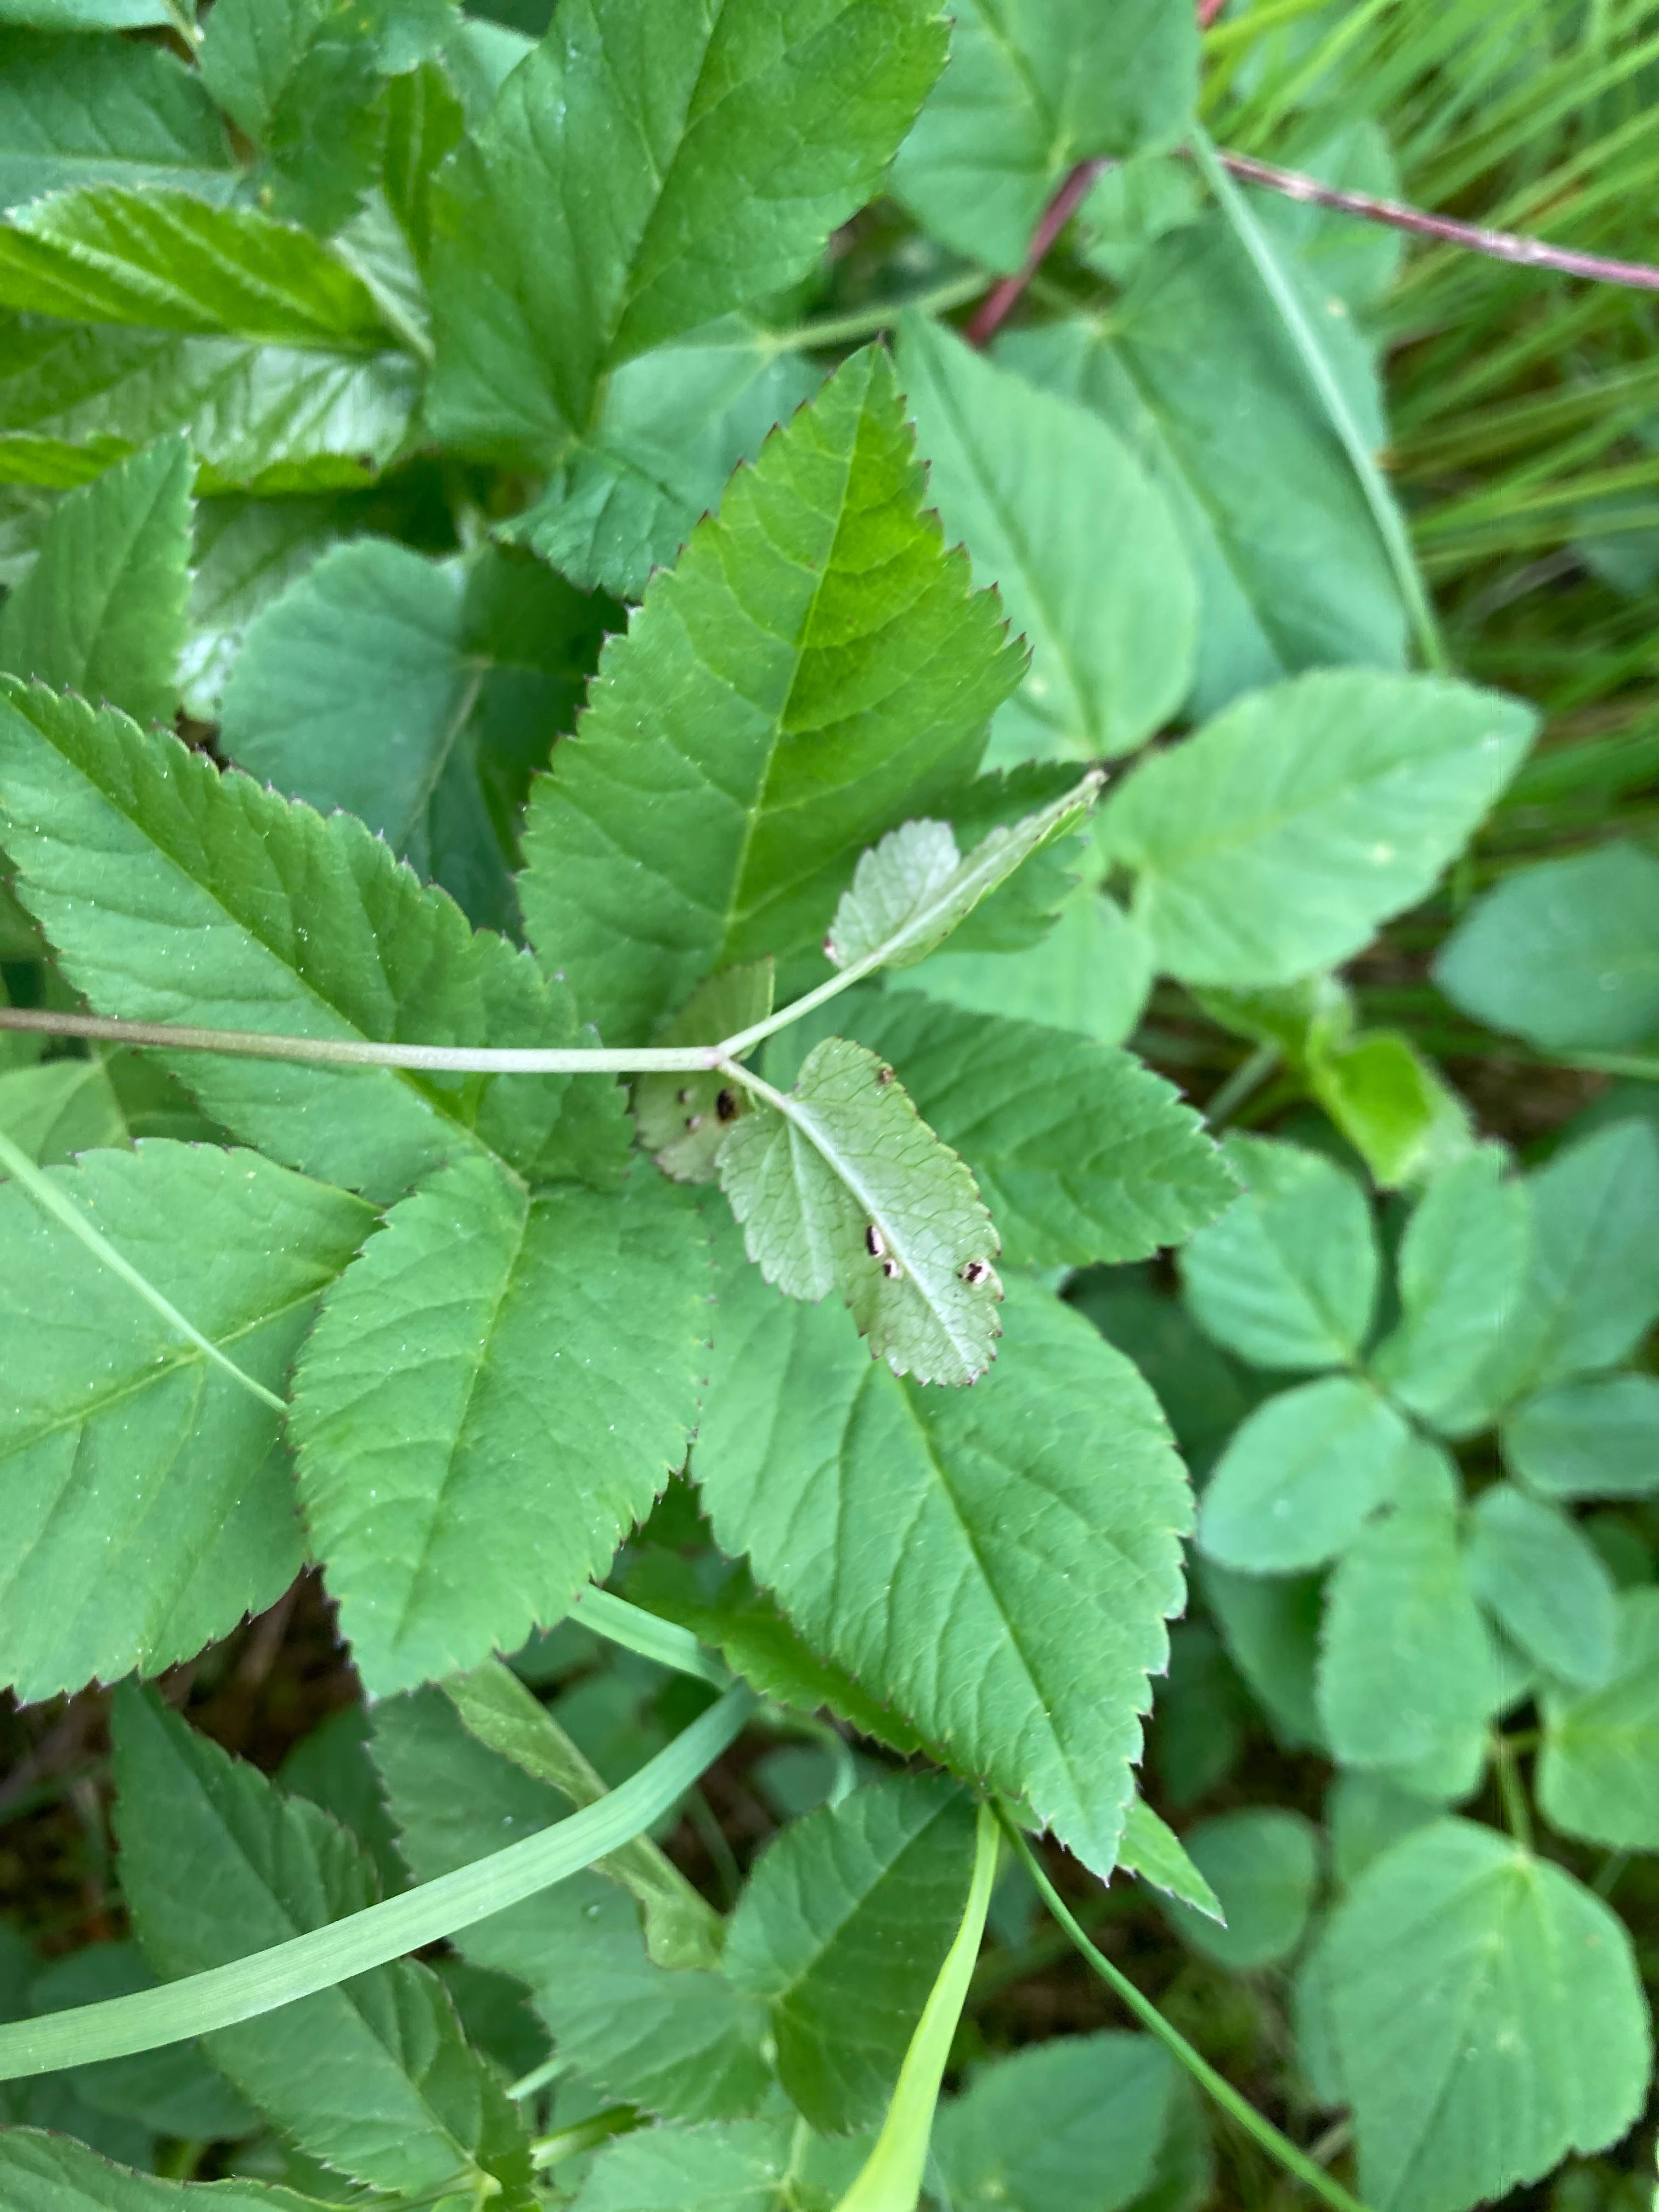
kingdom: Fungi
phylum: Basidiomycota
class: Pucciniomycetes
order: Pucciniales
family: Pucciniaceae
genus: Puccinia
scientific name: Puccinia
